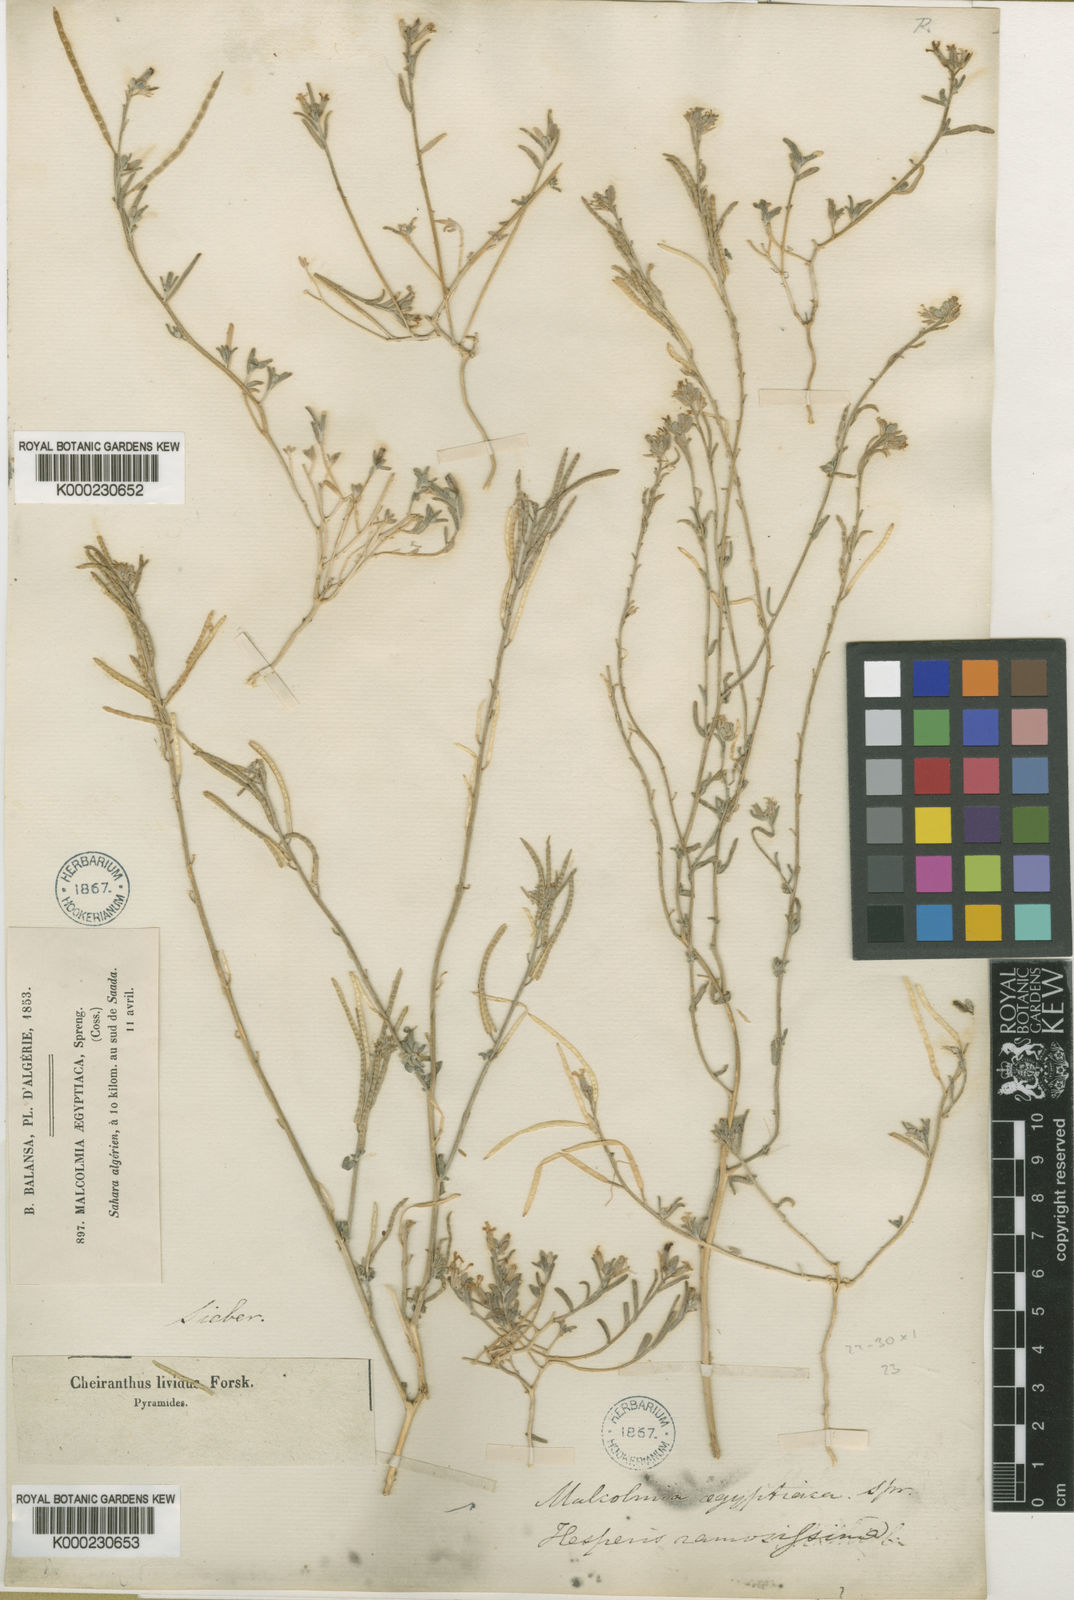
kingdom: Plantae
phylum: Tracheophyta
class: Magnoliopsida
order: Brassicales
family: Brassicaceae
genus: Eremobium
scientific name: Eremobium aegyptiacum
